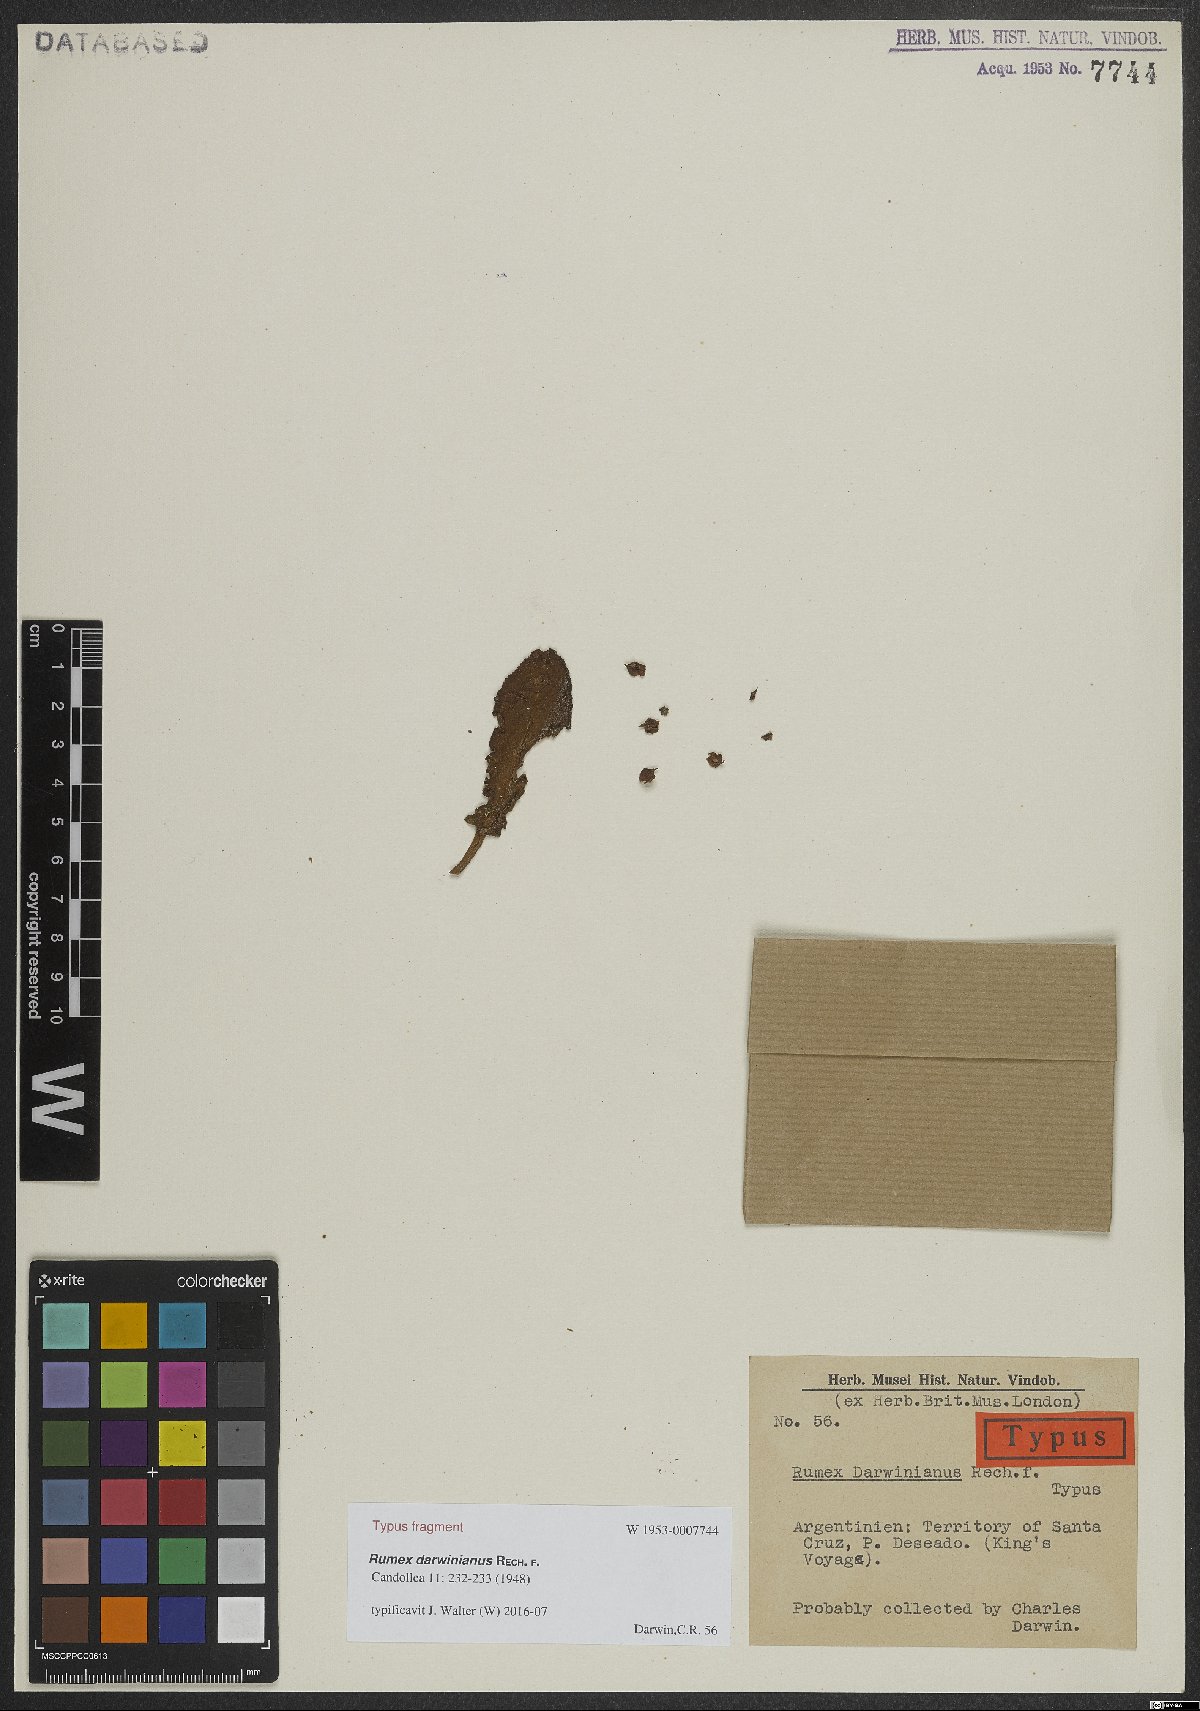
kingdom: Plantae
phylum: Tracheophyta
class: Magnoliopsida
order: Caryophyllales
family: Polygonaceae
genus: Rumex
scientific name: Rumex darwinianus
